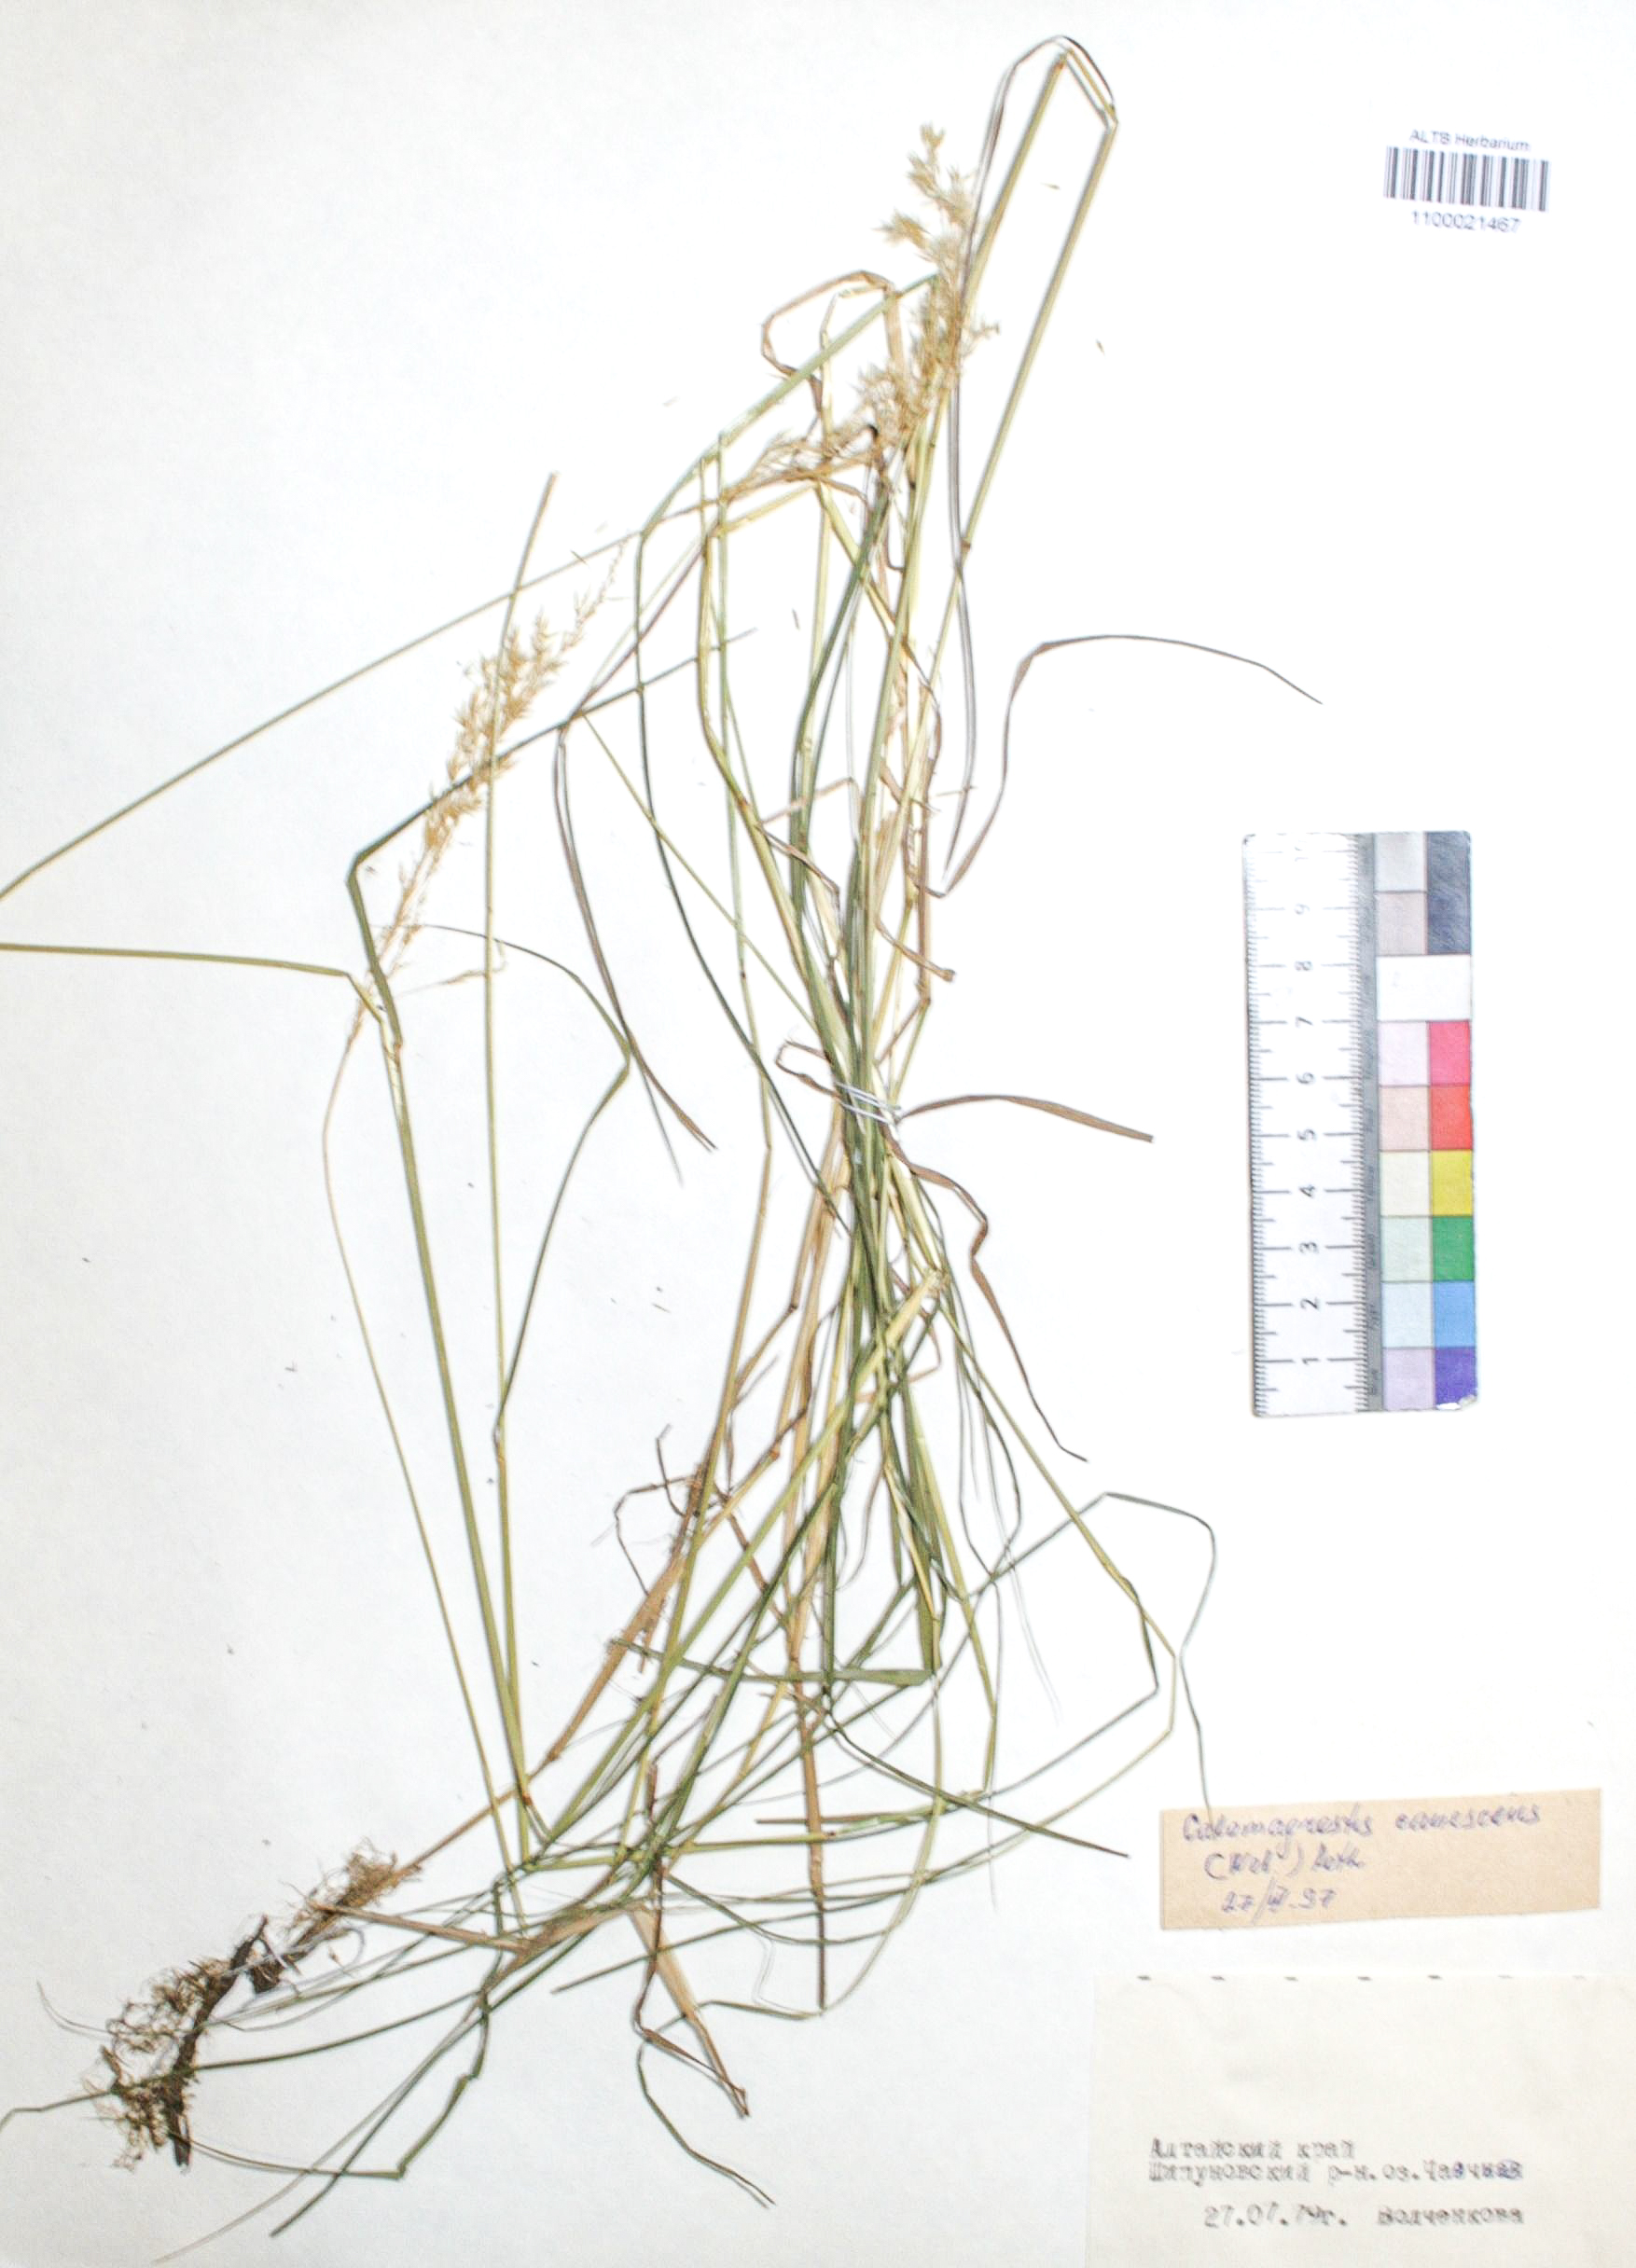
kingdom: Plantae
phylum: Tracheophyta
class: Liliopsida
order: Poales
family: Poaceae
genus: Calamagrostis
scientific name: Calamagrostis canescens
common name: Purple small-reed
